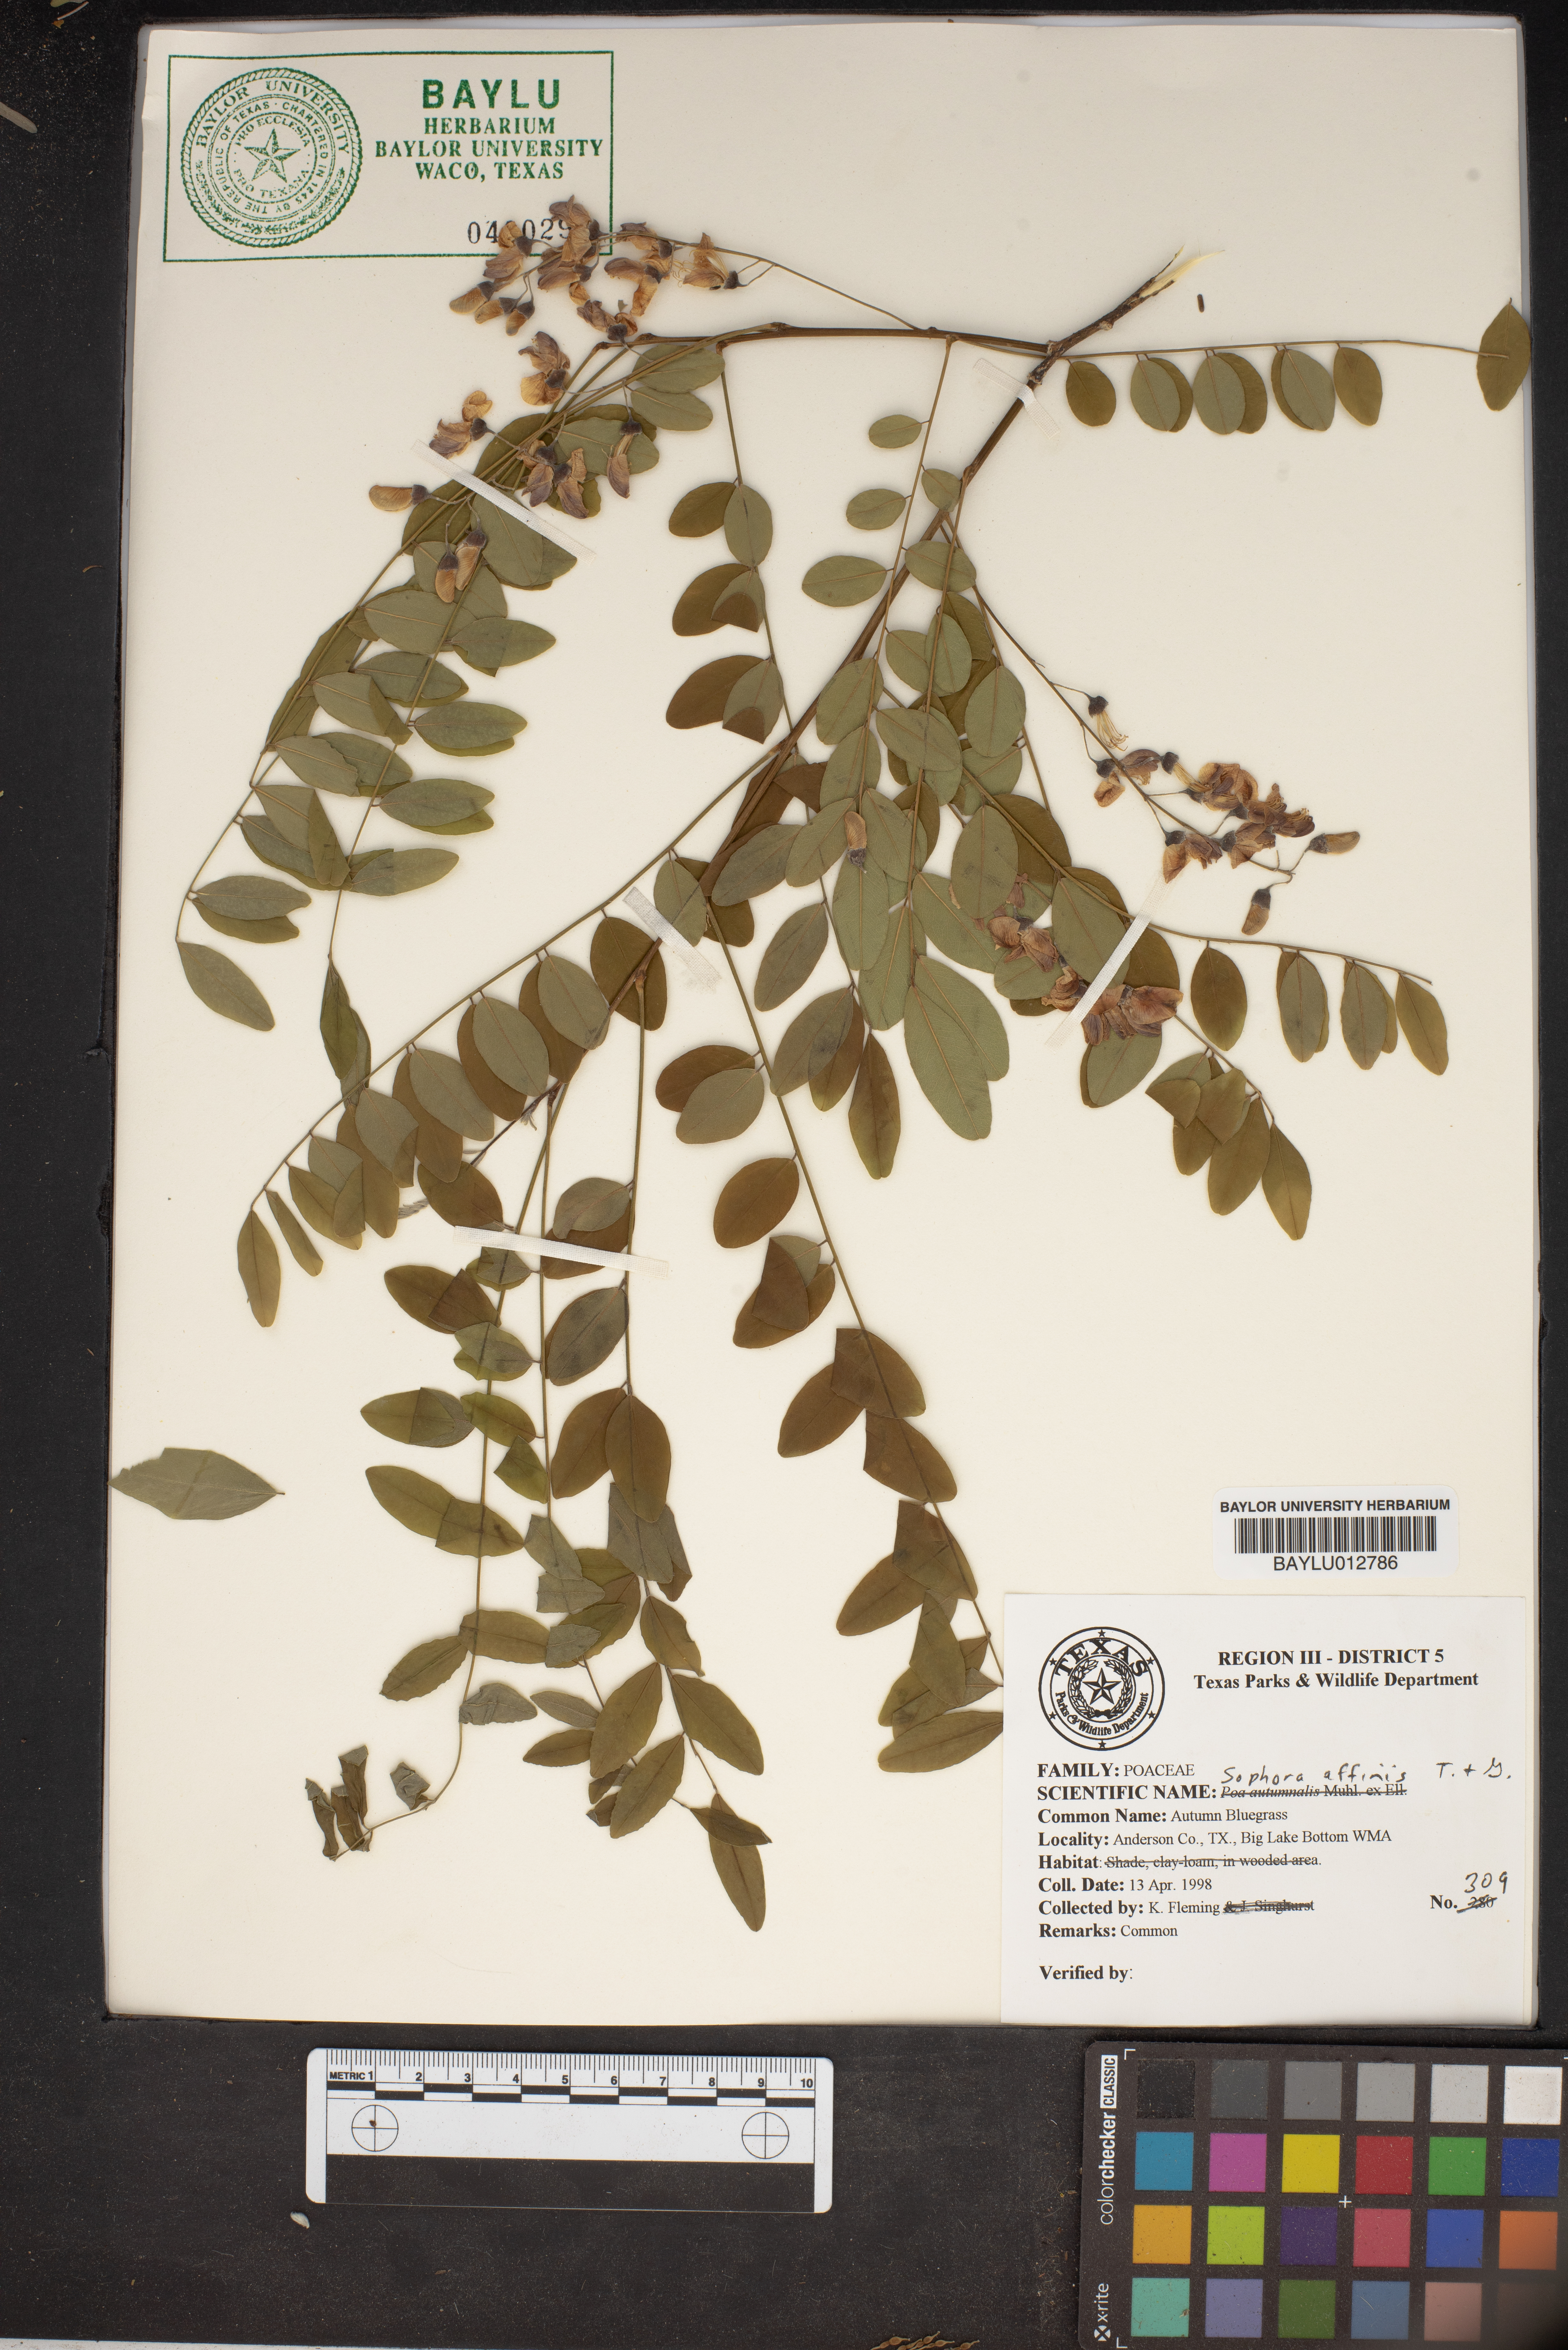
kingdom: Plantae
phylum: Tracheophyta
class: Magnoliopsida
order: Fabales
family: Fabaceae
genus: Styphnolobium
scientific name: Styphnolobium affine
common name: Texas sophora
